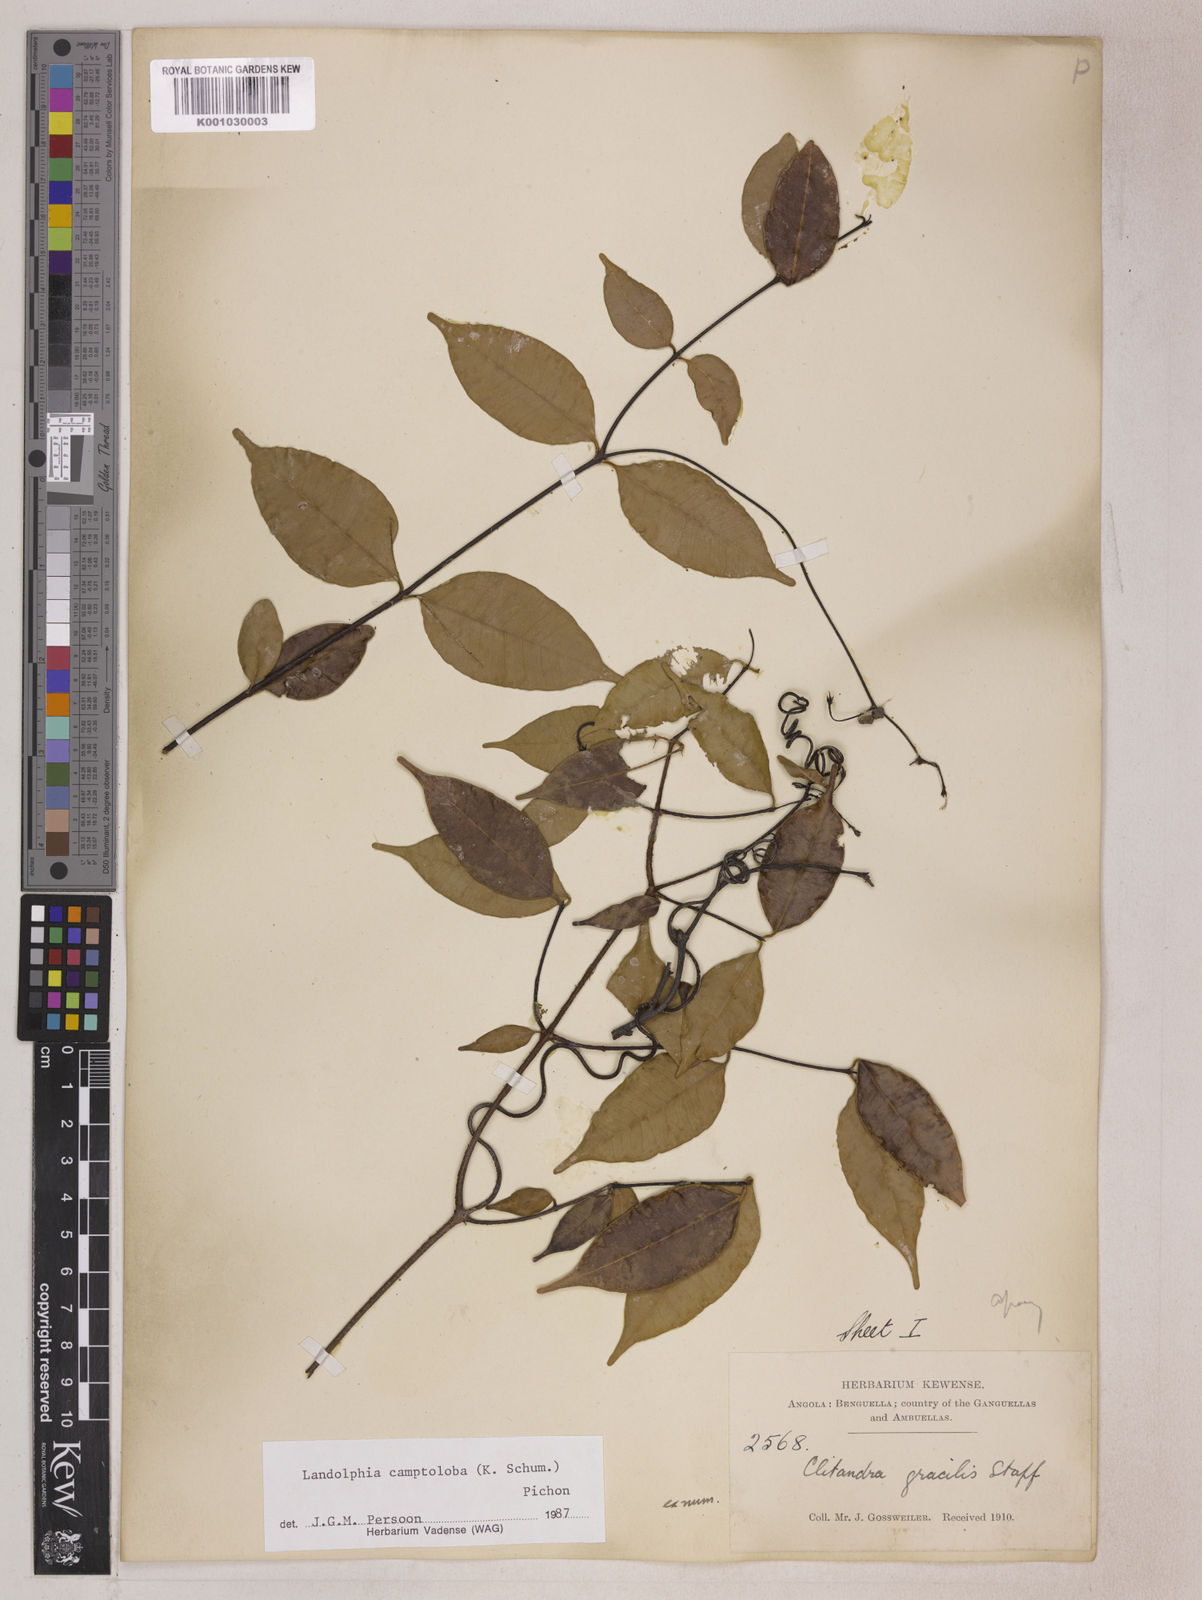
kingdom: Plantae
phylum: Tracheophyta
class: Magnoliopsida
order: Gentianales
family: Apocynaceae
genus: Landolphia
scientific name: Landolphia camptoloba
